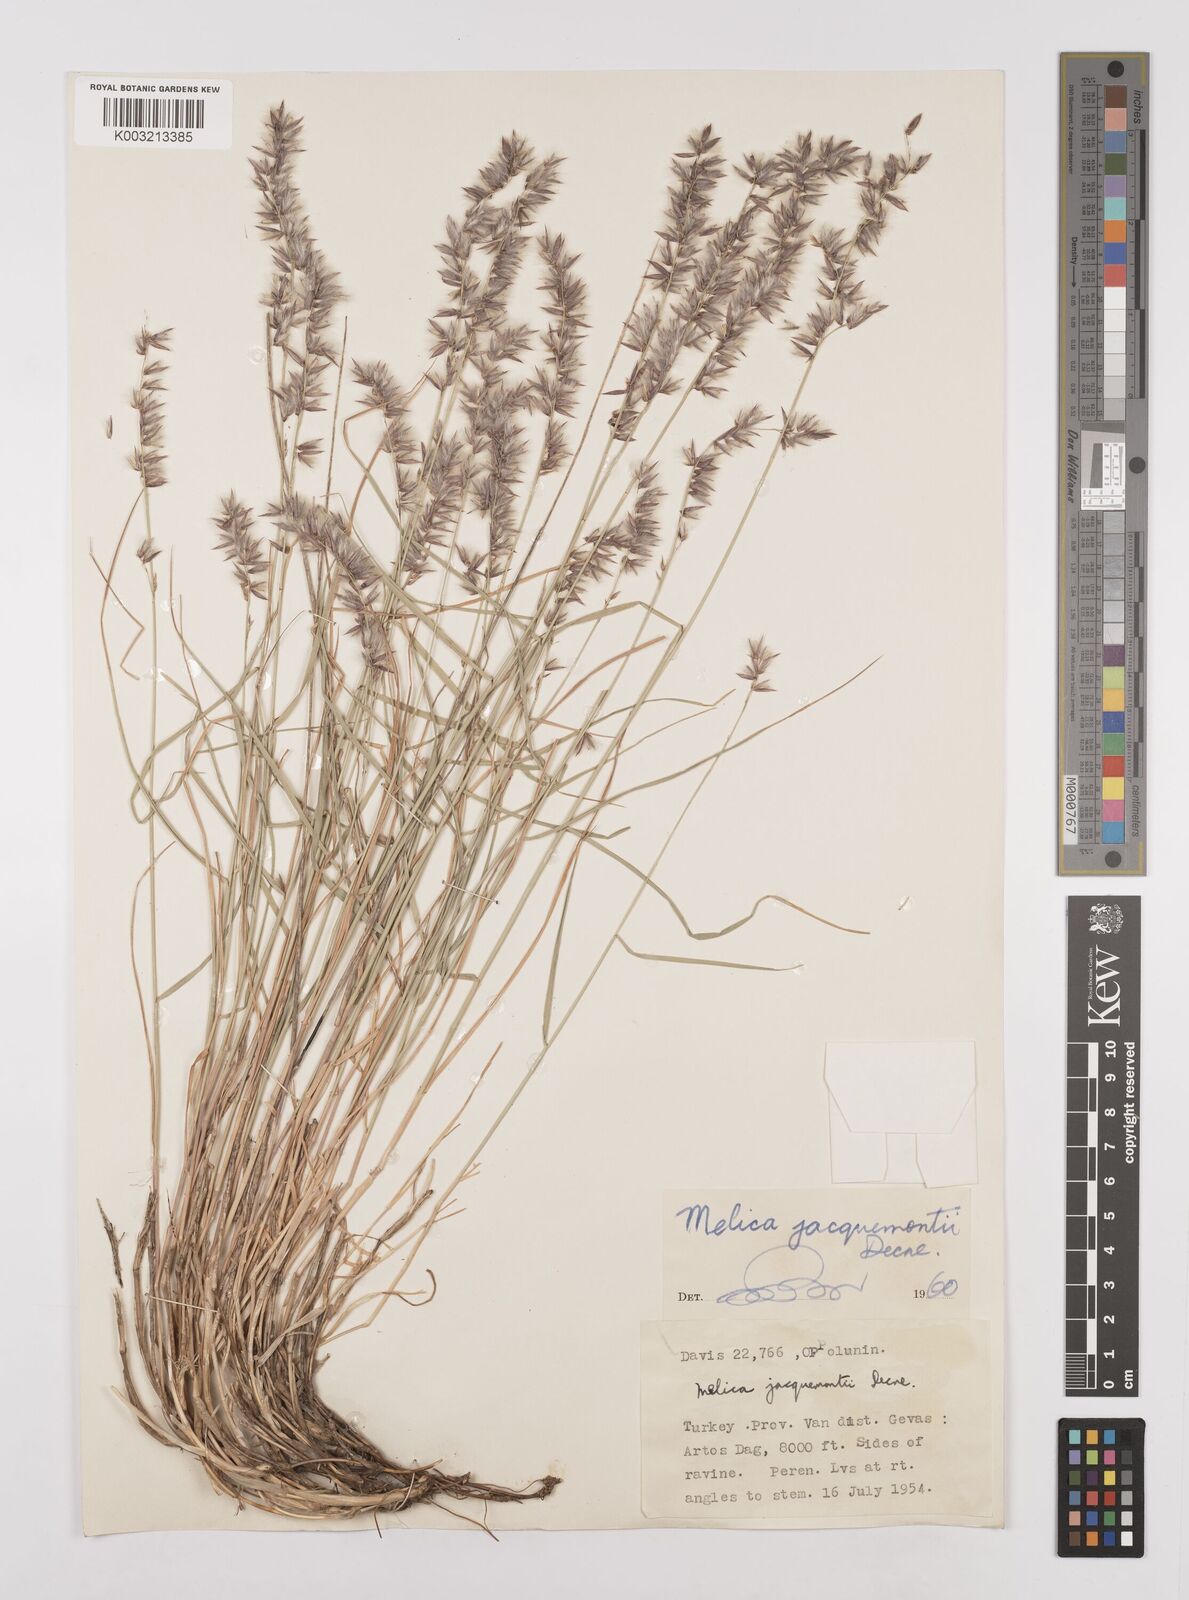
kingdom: Plantae
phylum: Tracheophyta
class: Liliopsida
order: Poales
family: Poaceae
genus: Melica
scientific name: Melica persica
